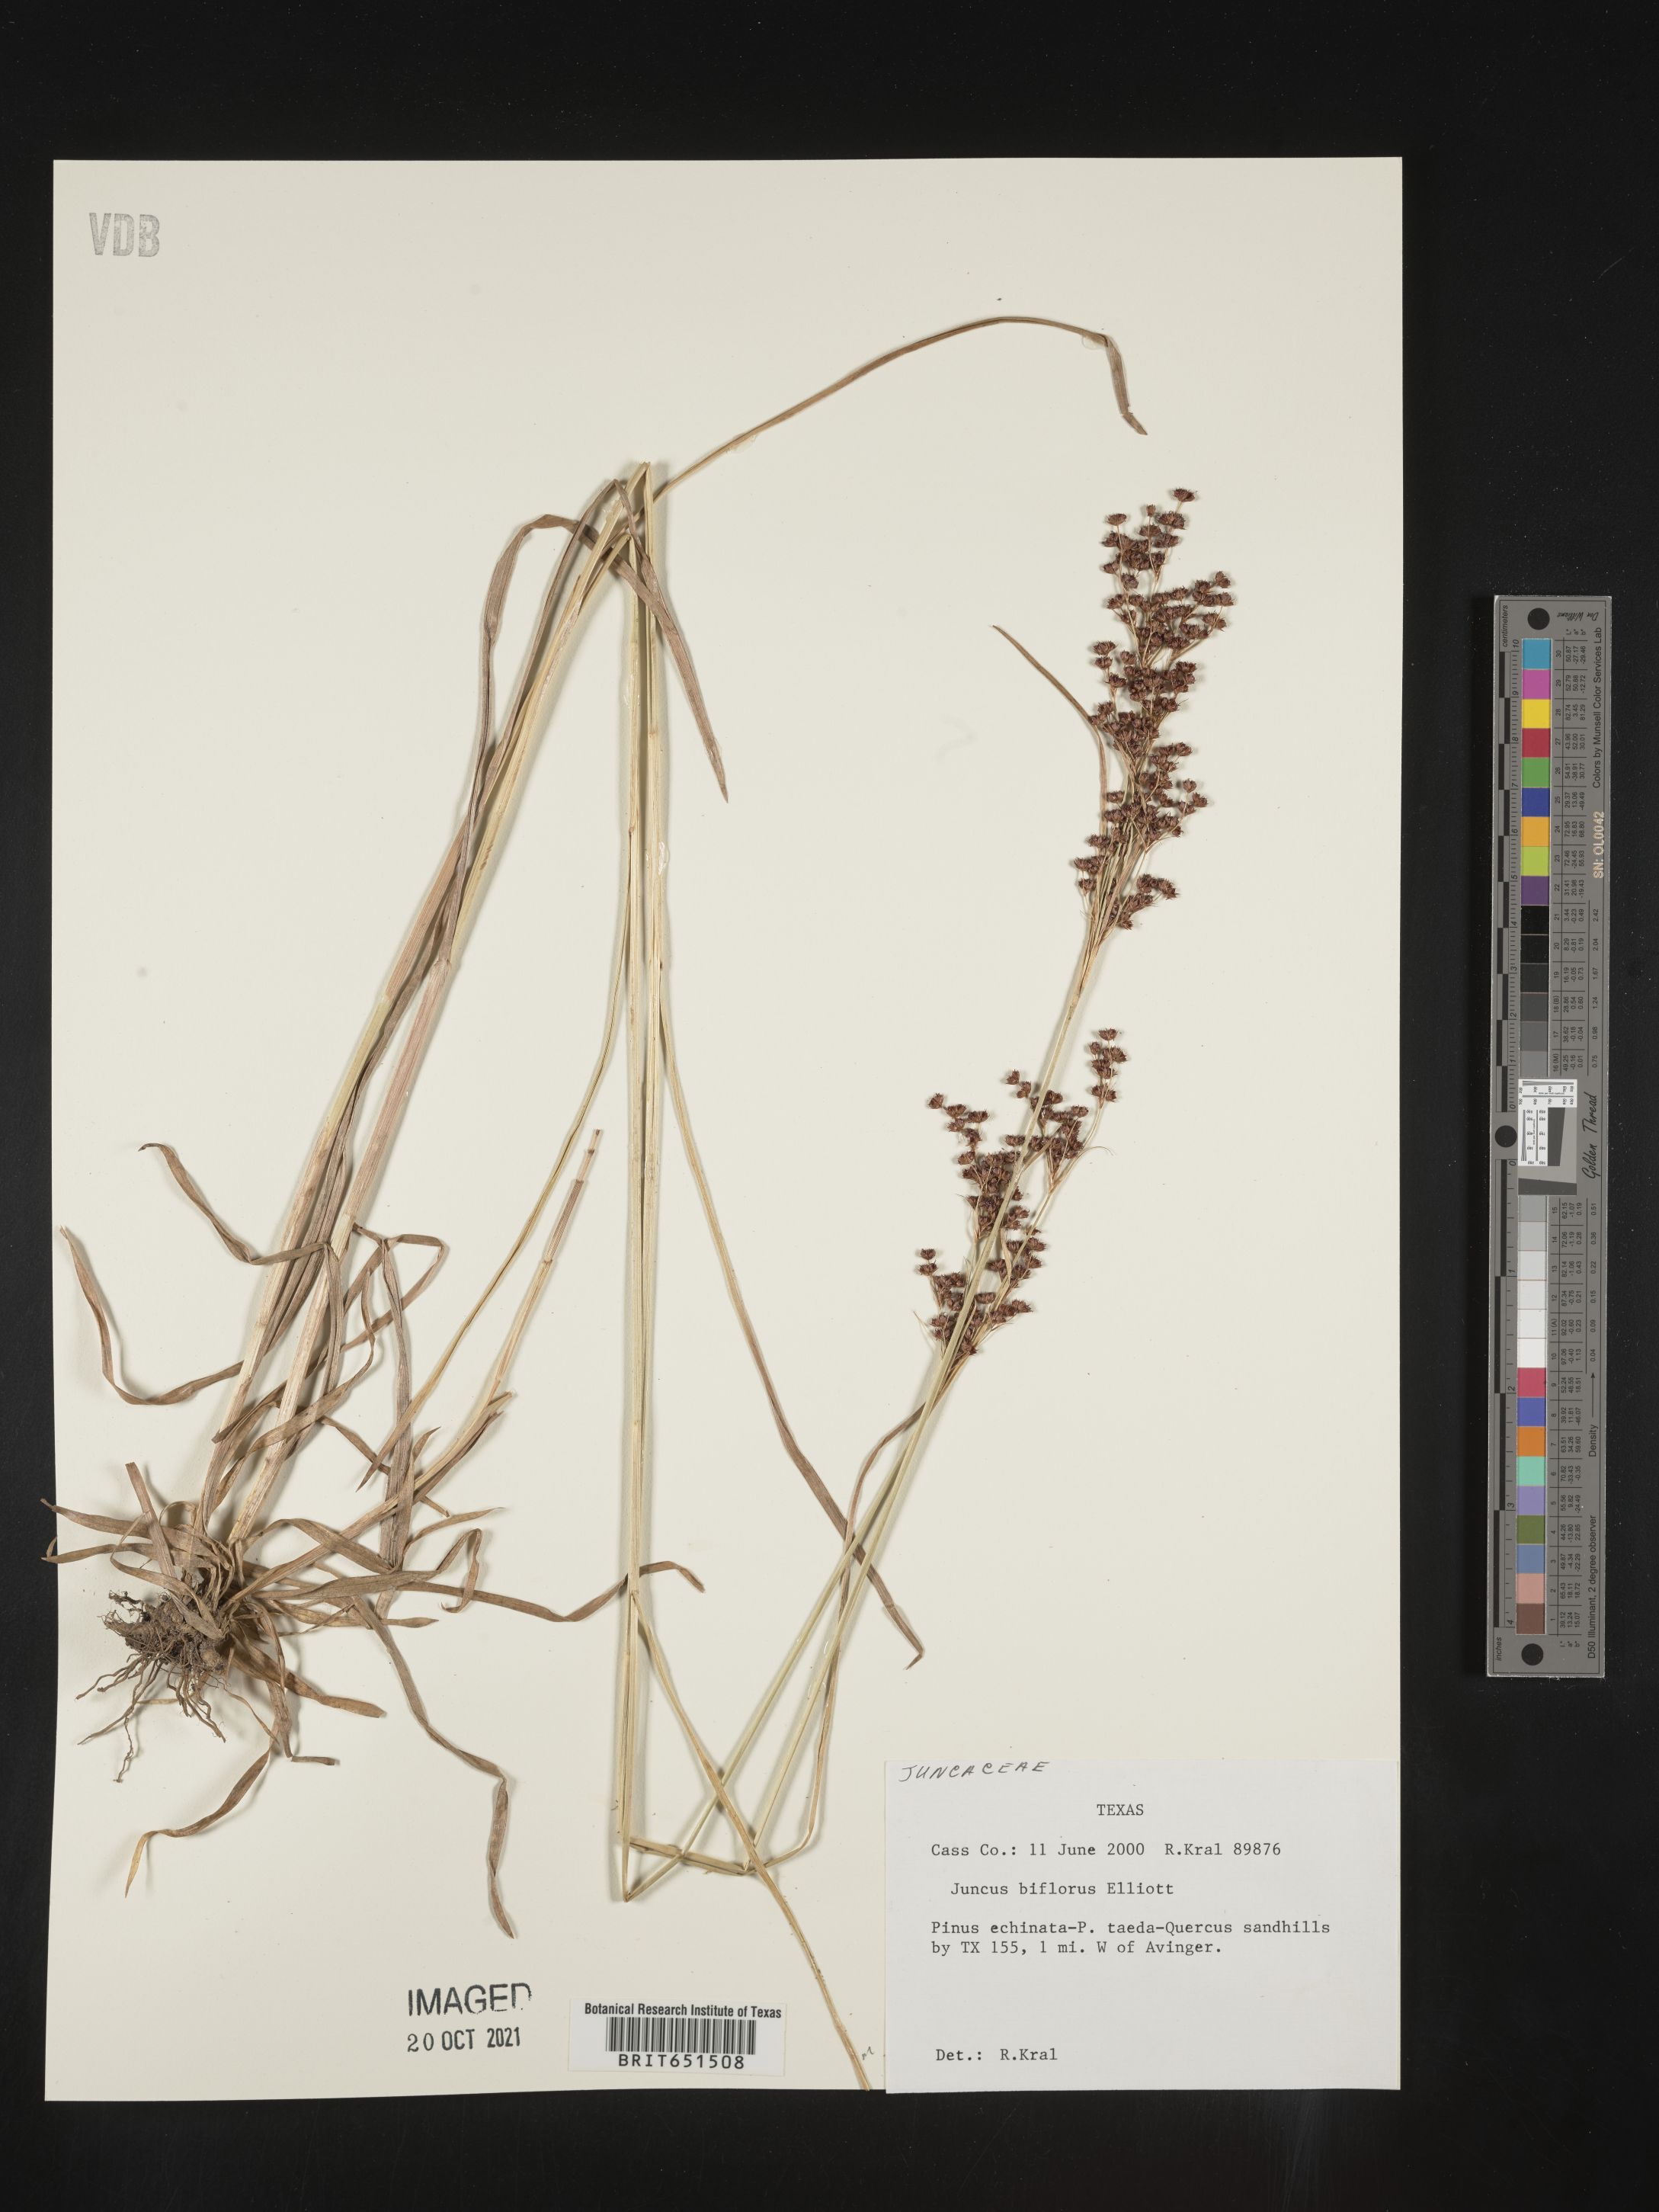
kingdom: Plantae
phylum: Tracheophyta
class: Liliopsida
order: Poales
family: Juncaceae
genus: Juncus
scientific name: Juncus biflorus
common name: Two-flowered rush
